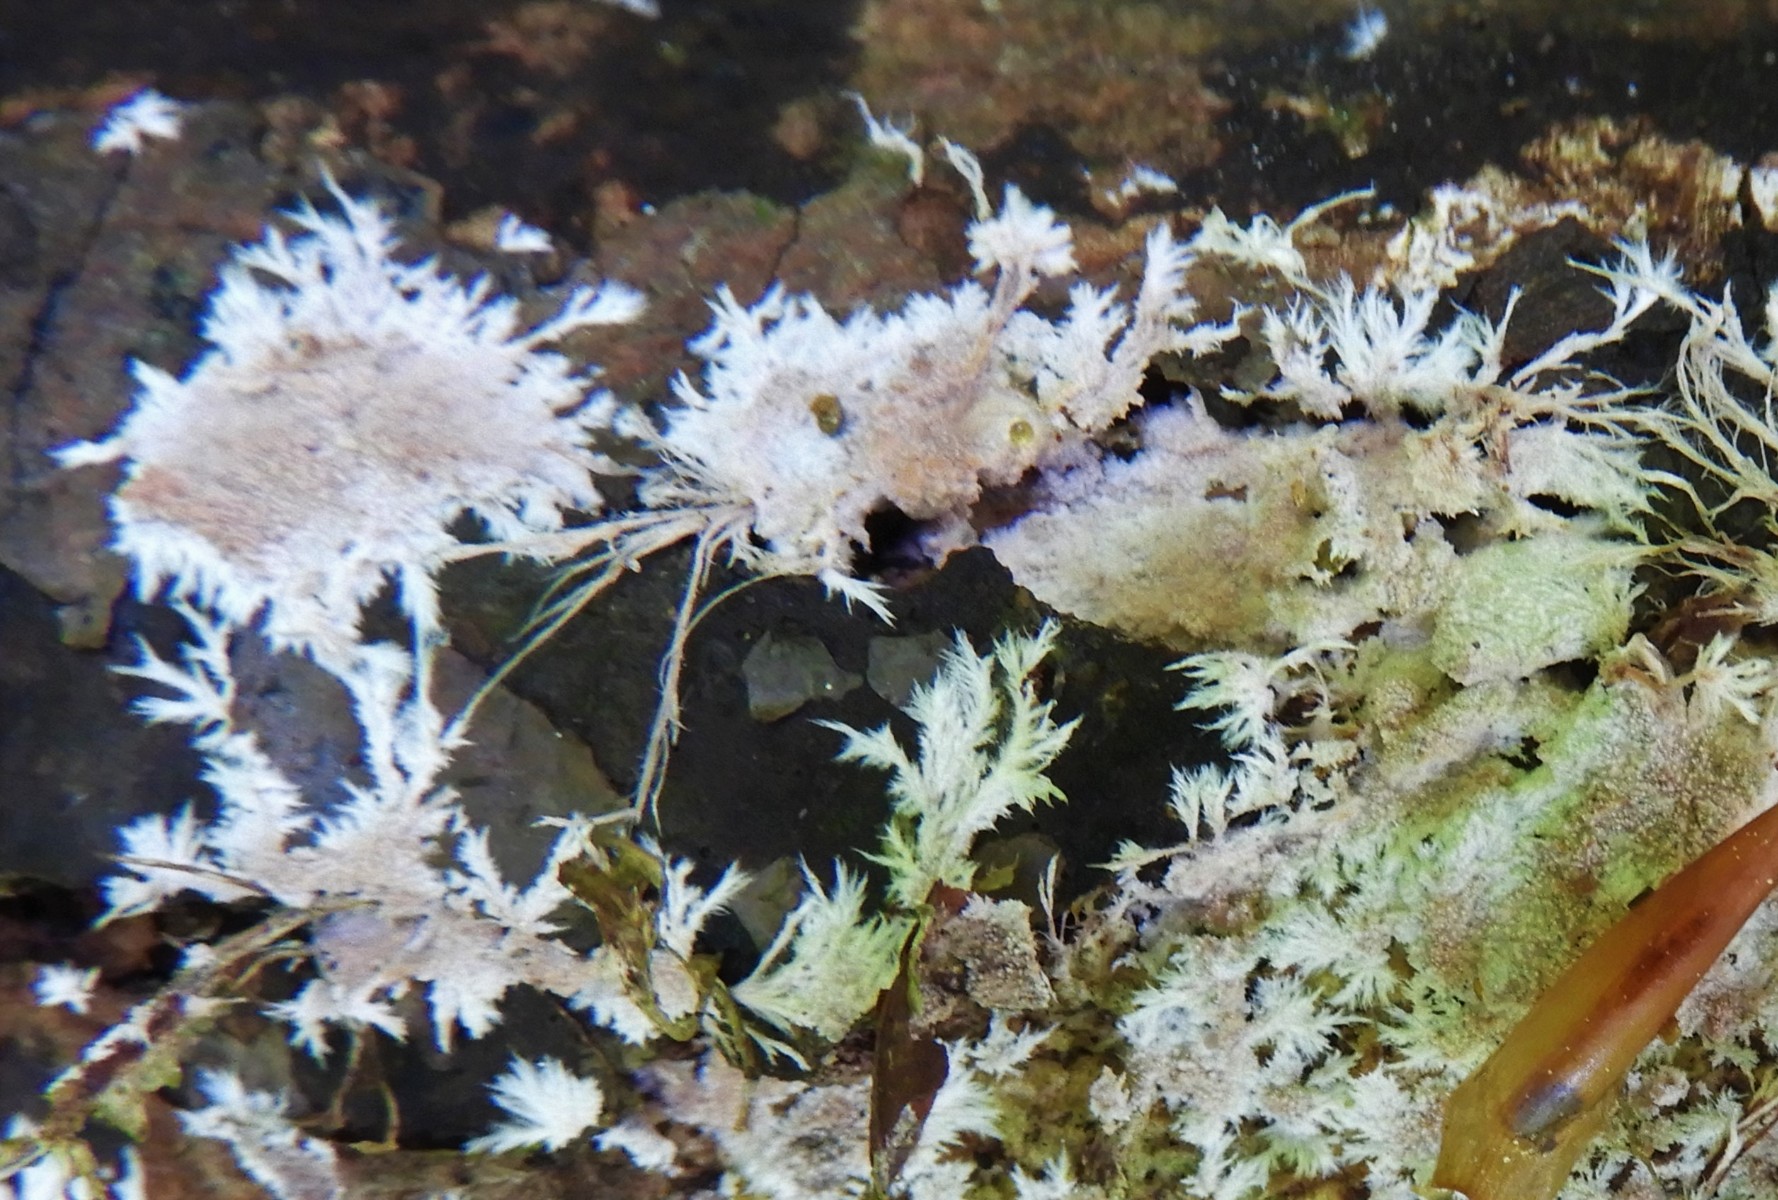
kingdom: Fungi
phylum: Basidiomycota
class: Agaricomycetes
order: Polyporales
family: Steccherinaceae
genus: Steccherinum
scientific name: Steccherinum fimbriatum
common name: trådet skønpig
